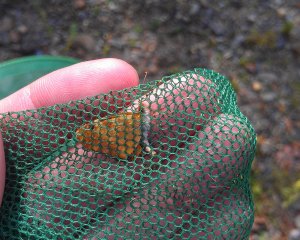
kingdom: Animalia
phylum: Arthropoda
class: Insecta
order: Lepidoptera
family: Nymphalidae
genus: Phyciodes
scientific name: Phyciodes tharos
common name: Northern Crescent
